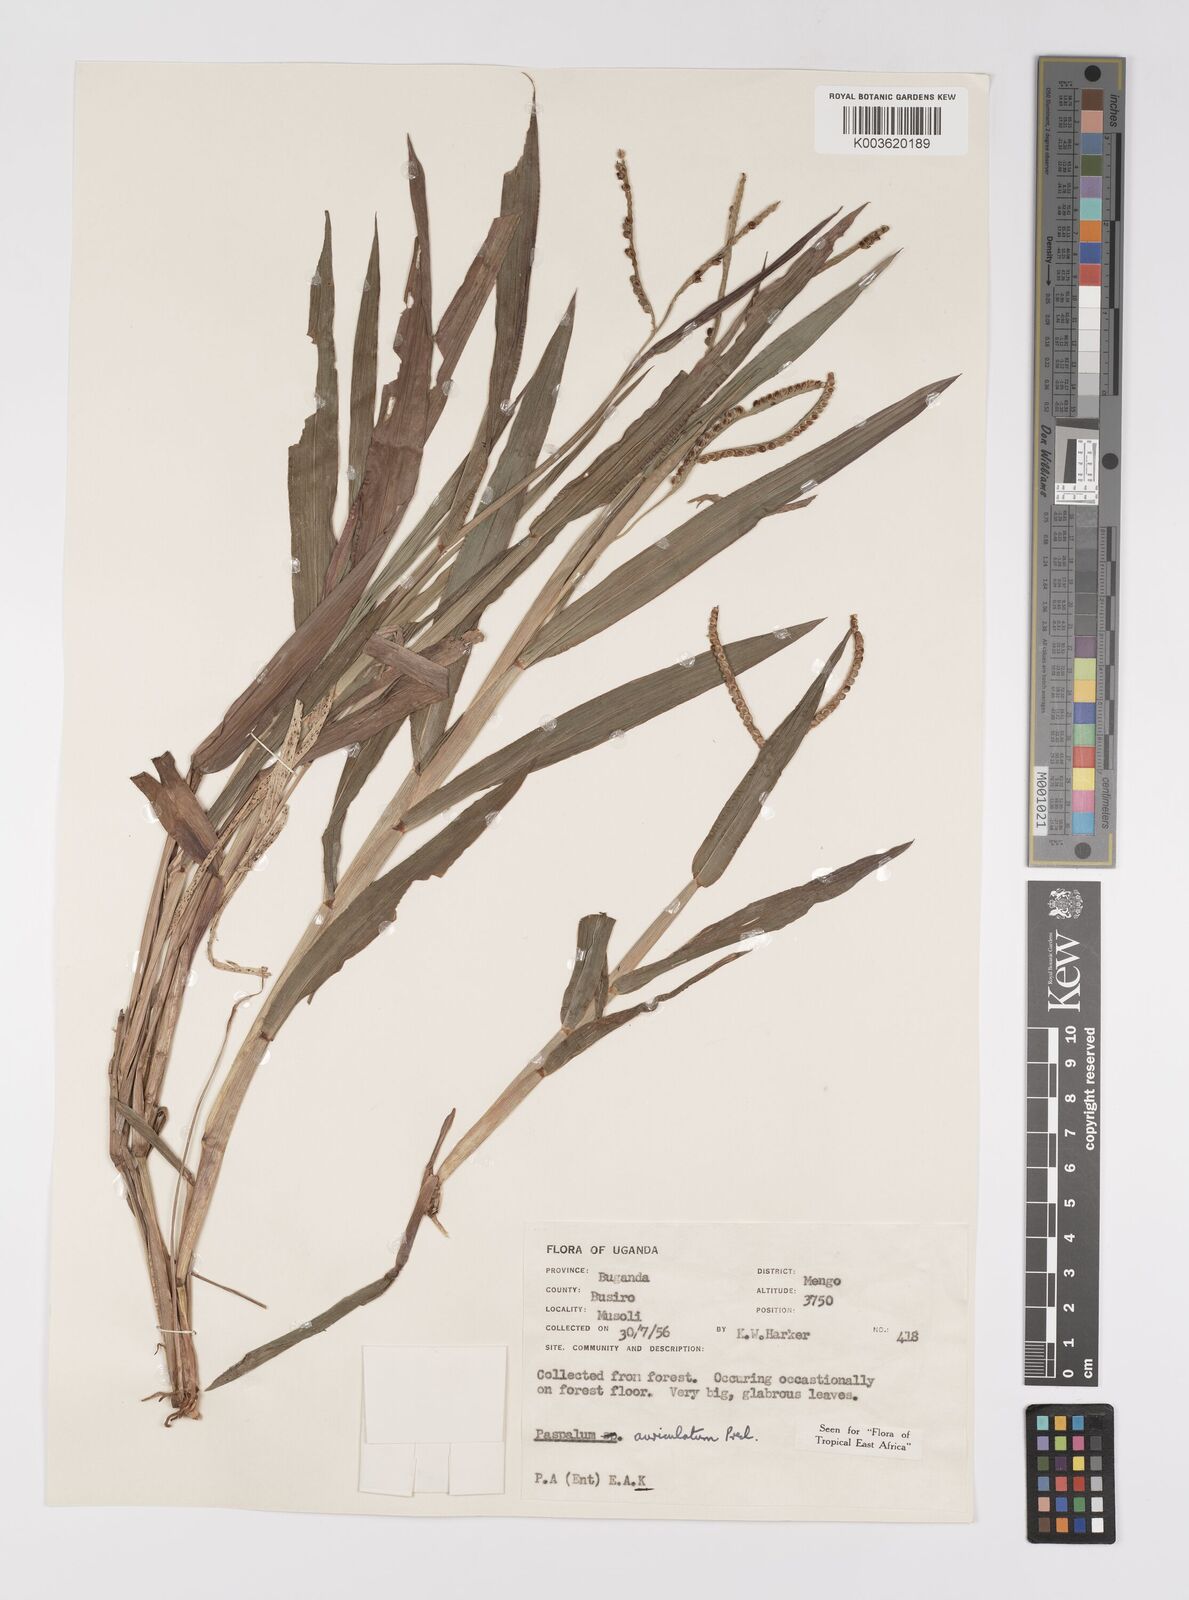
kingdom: Plantae
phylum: Tracheophyta
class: Liliopsida
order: Poales
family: Poaceae
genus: Paspalum
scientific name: Paspalum lamprocaryon
